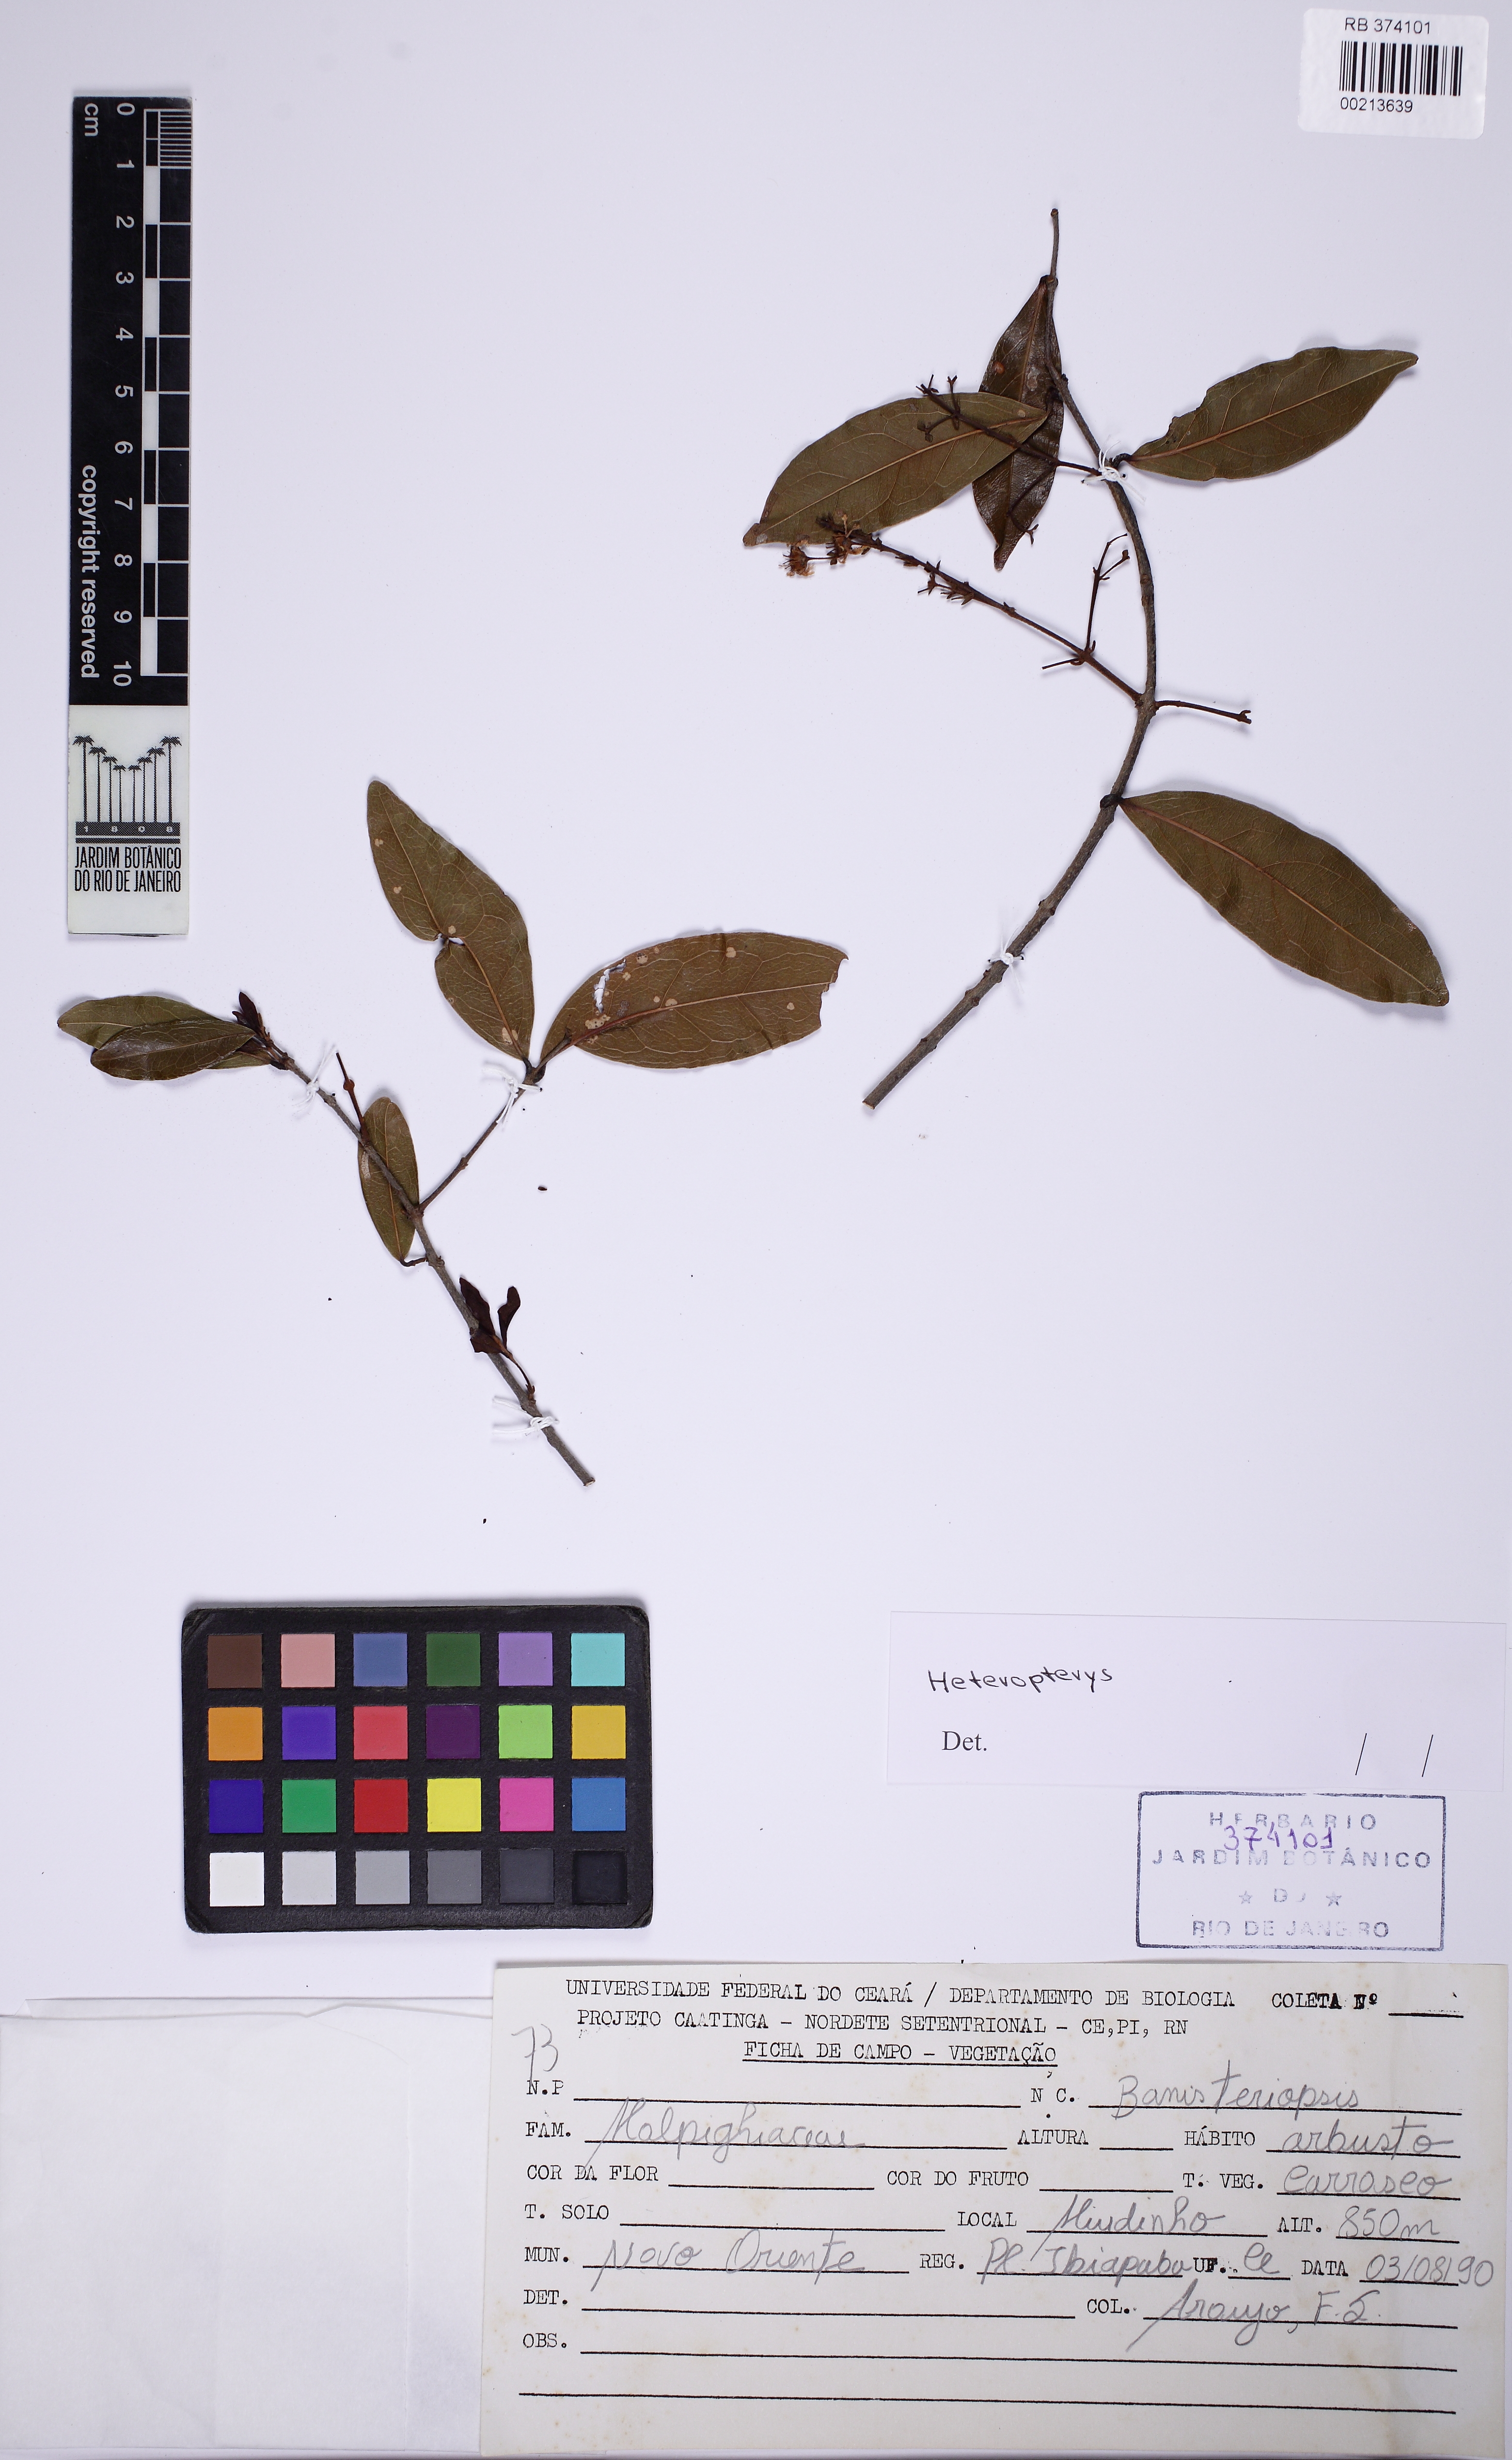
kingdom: Plantae
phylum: Tracheophyta
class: Magnoliopsida
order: Malpighiales
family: Malpighiaceae
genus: Heteropterys
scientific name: Heteropterys
